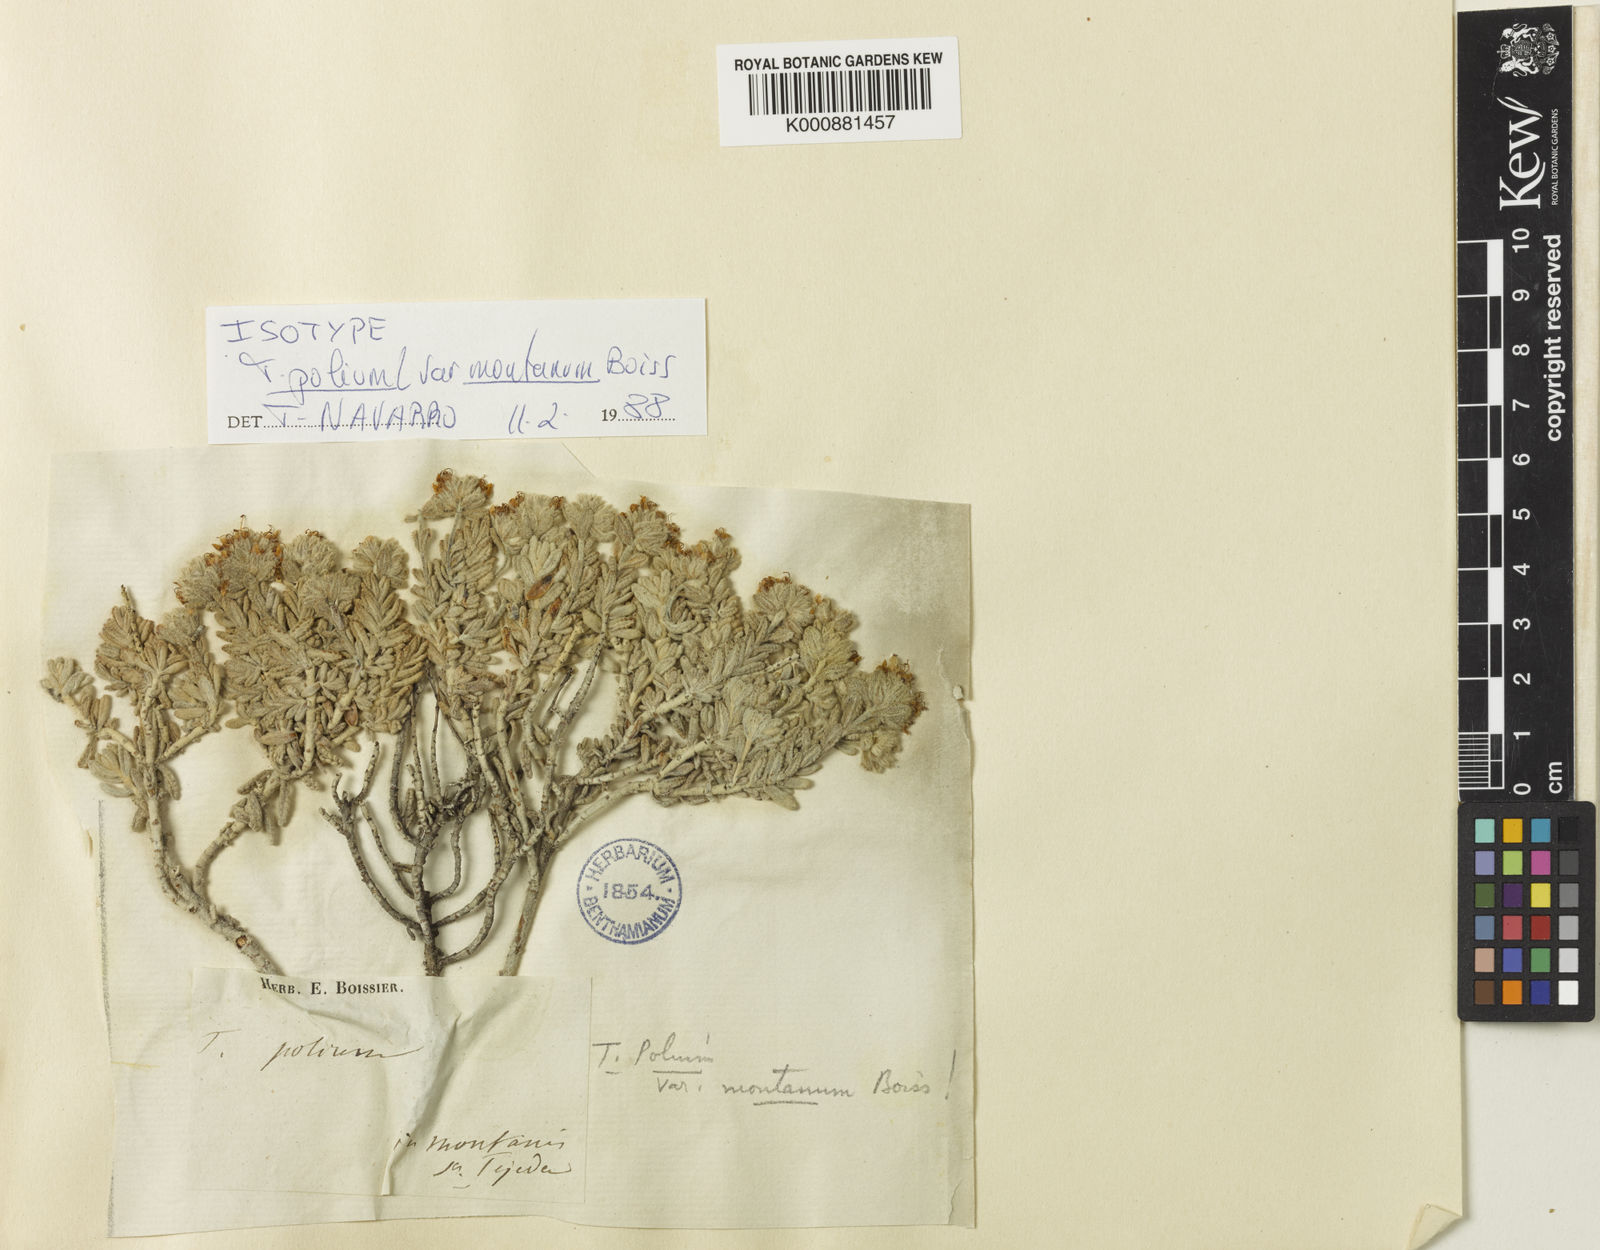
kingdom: Plantae
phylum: Tracheophyta
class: Magnoliopsida
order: Lamiales
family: Lamiaceae
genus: Teucrium
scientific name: Teucrium polium
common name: Poley
